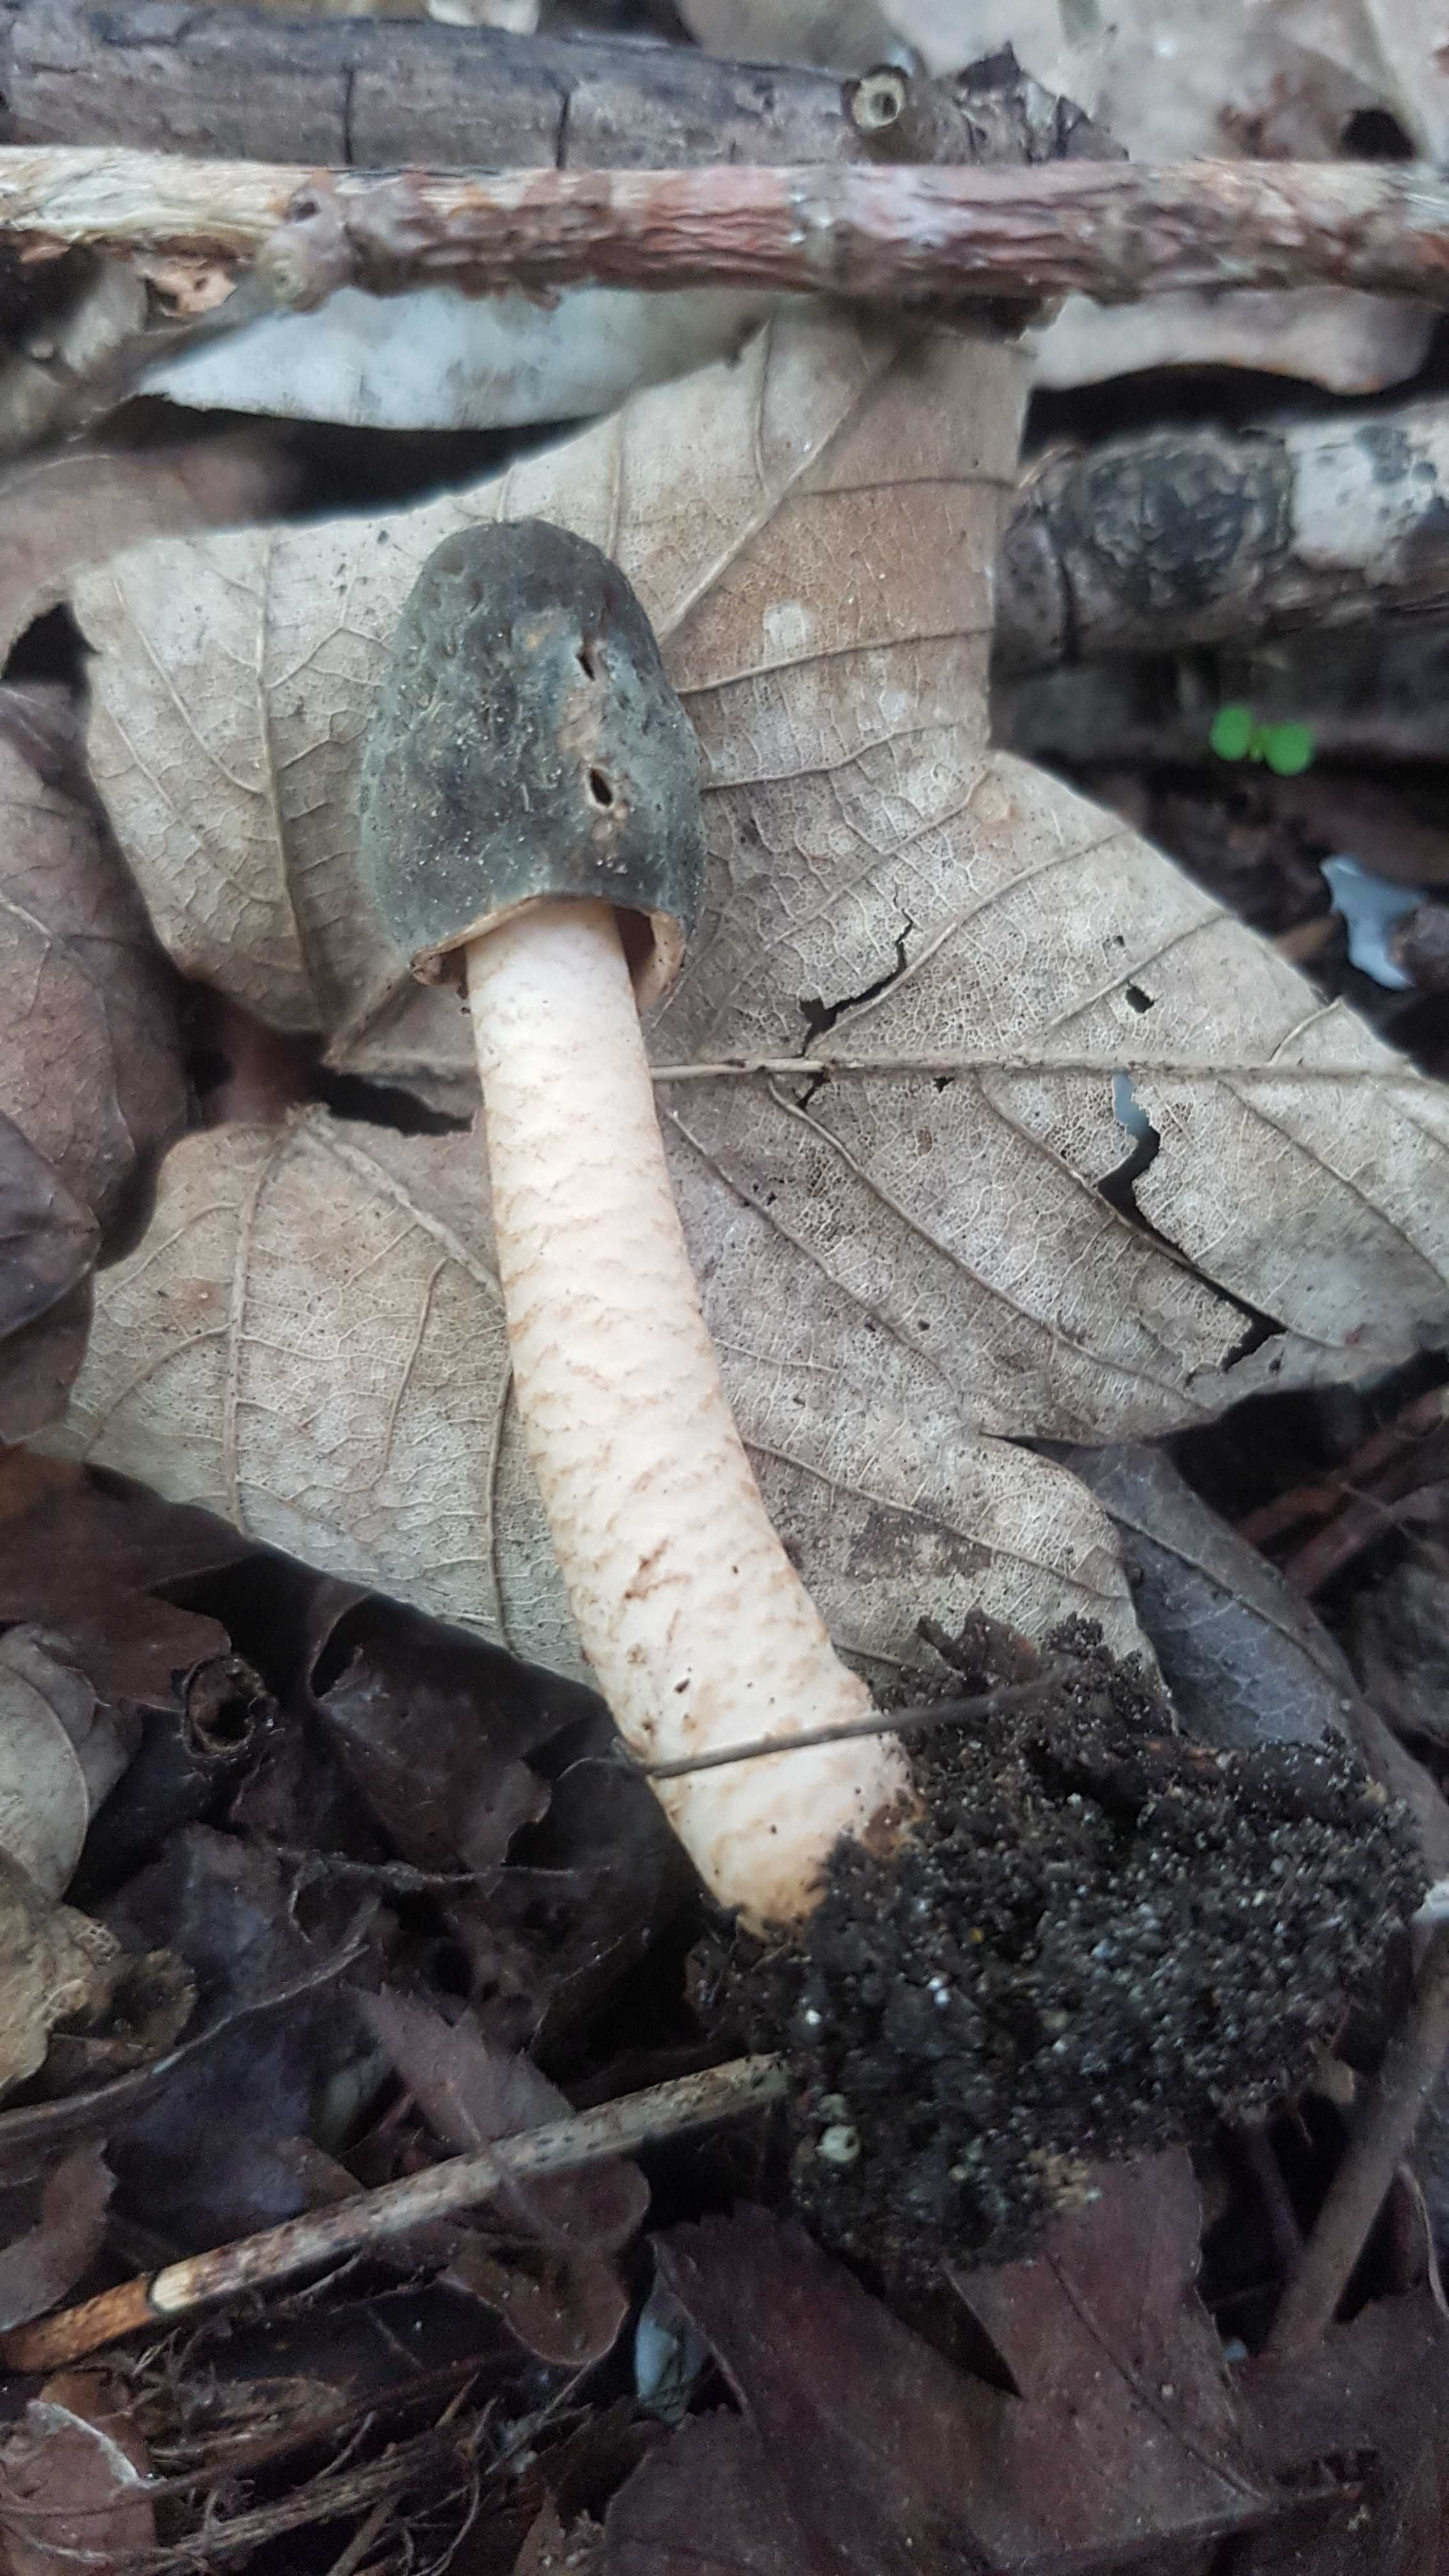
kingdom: Fungi
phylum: Ascomycota
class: Pezizomycetes
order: Pezizales
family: Morchellaceae
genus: Verpa
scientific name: Verpa conica
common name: glat klokkemorkel
